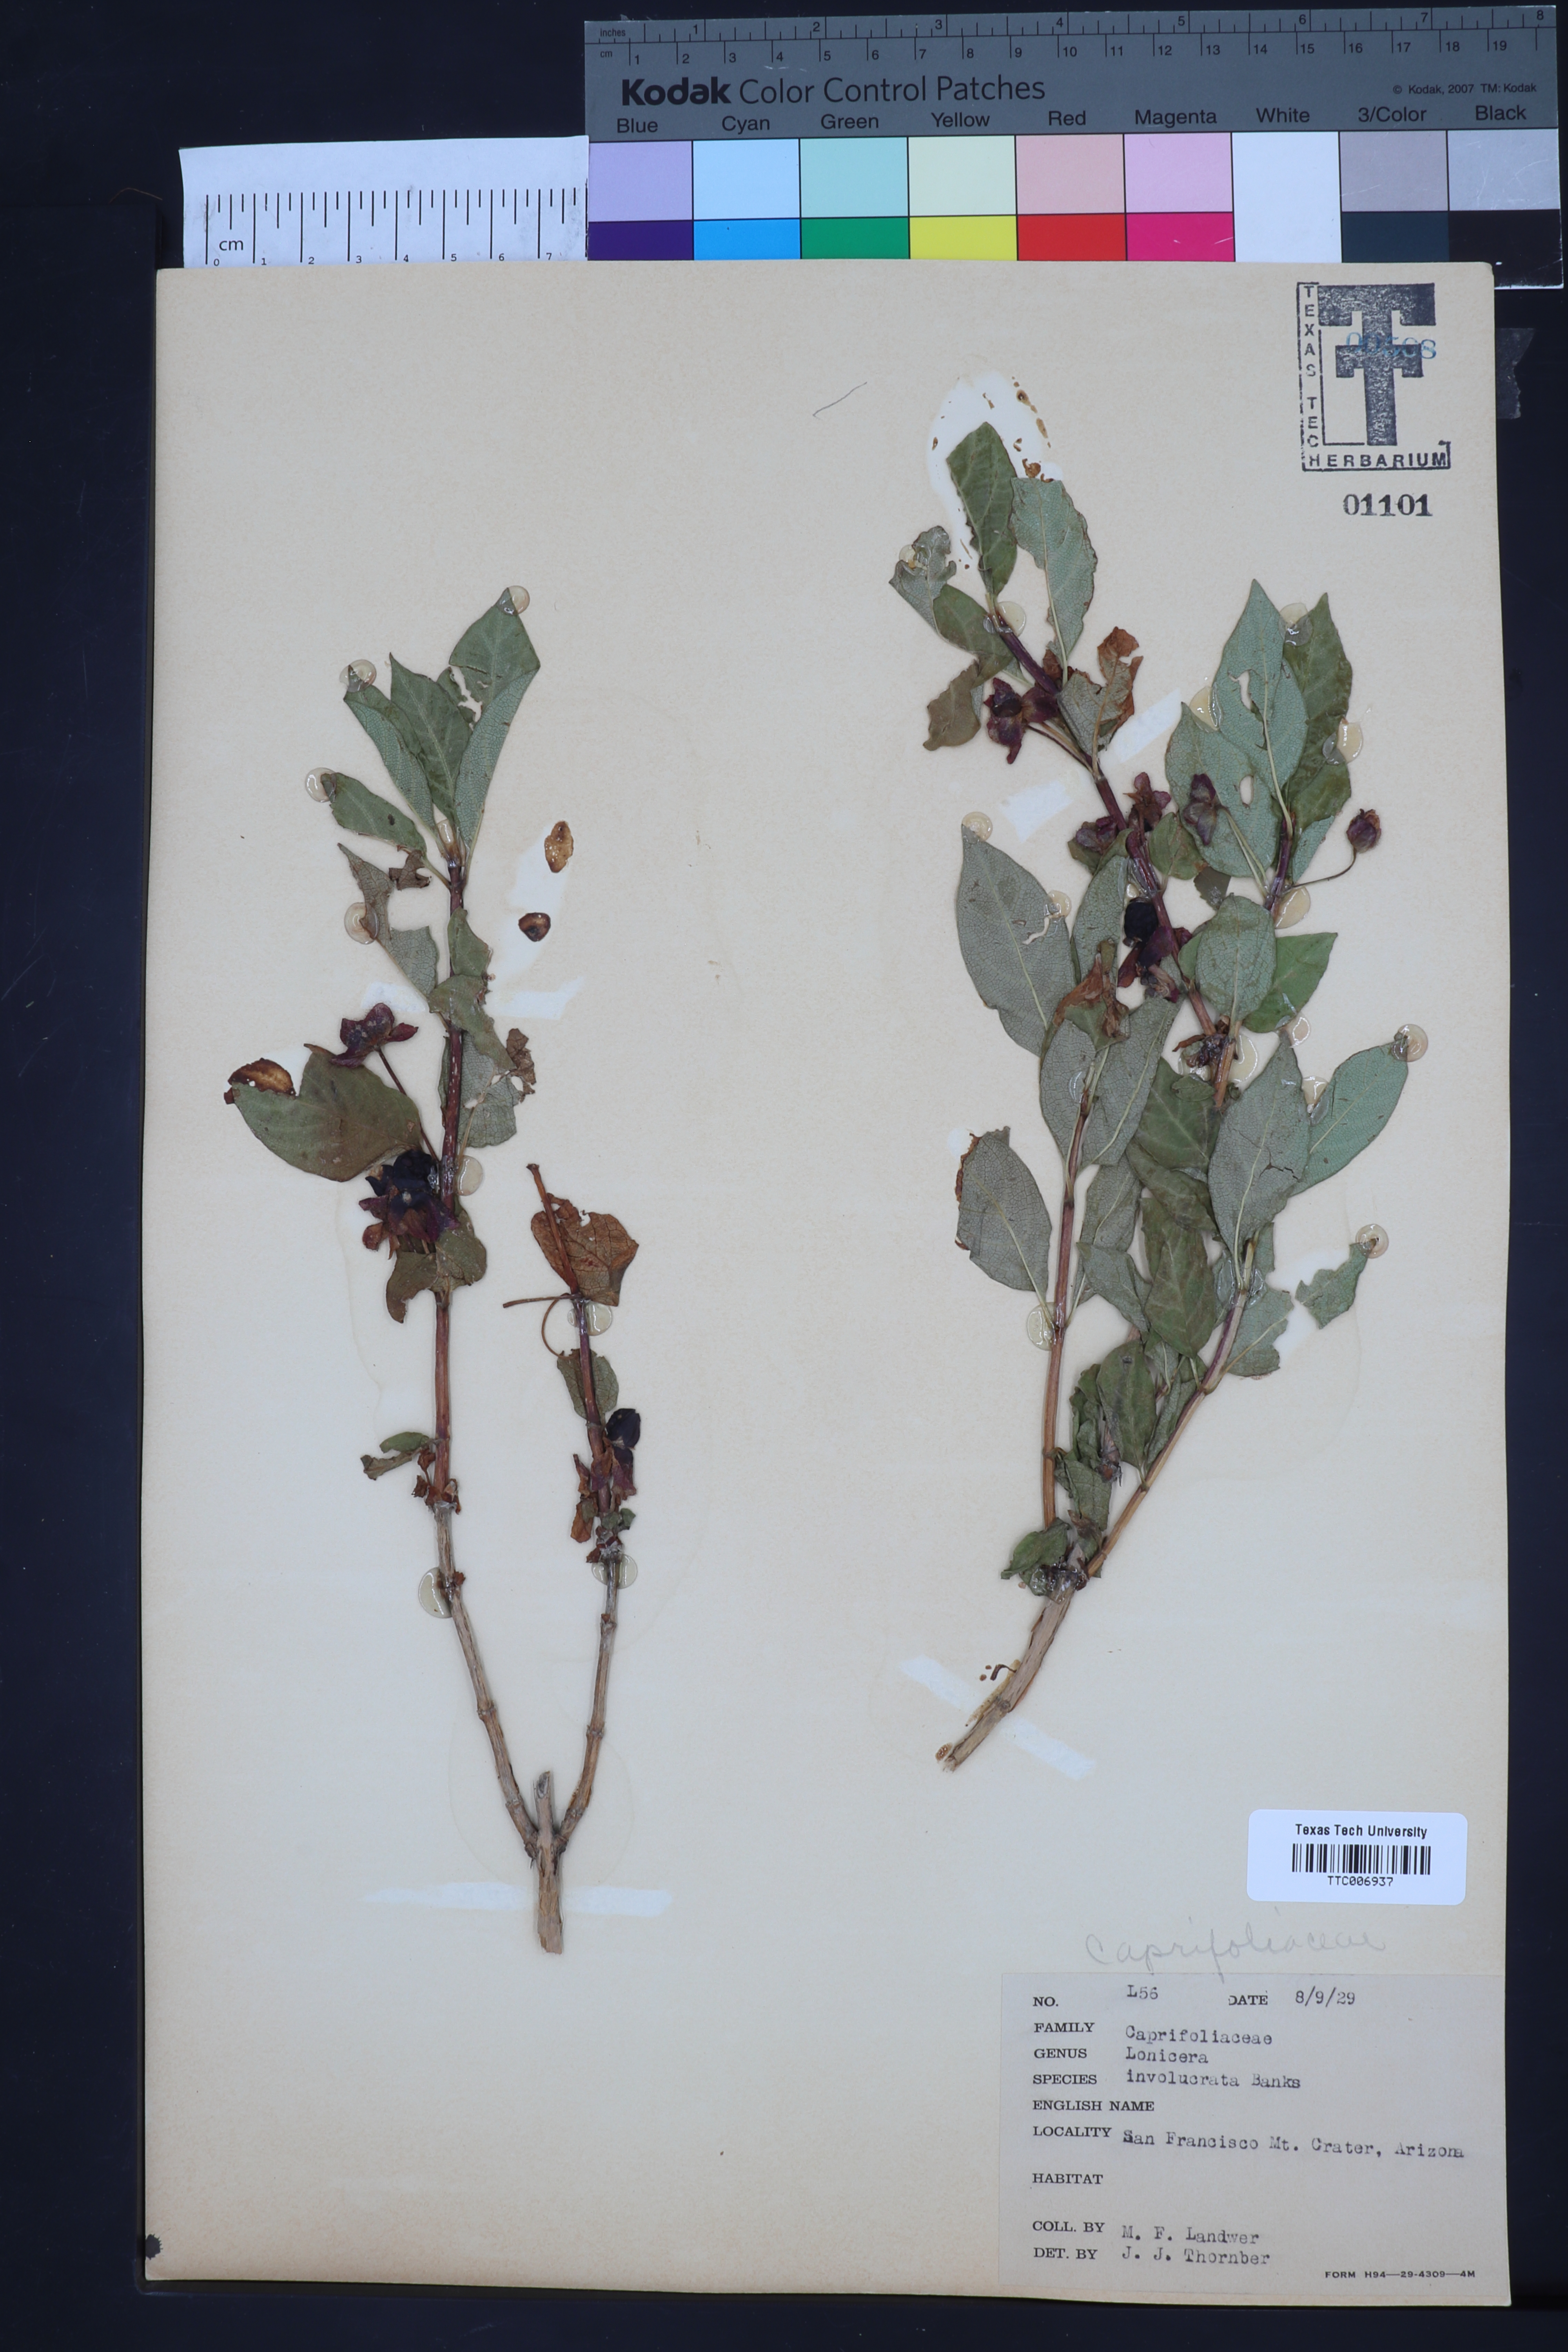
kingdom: Plantae
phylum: Tracheophyta
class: Magnoliopsida
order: Dipsacales
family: Caprifoliaceae
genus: Lonicera
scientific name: Lonicera involucrata
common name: Californian honeysuckle
